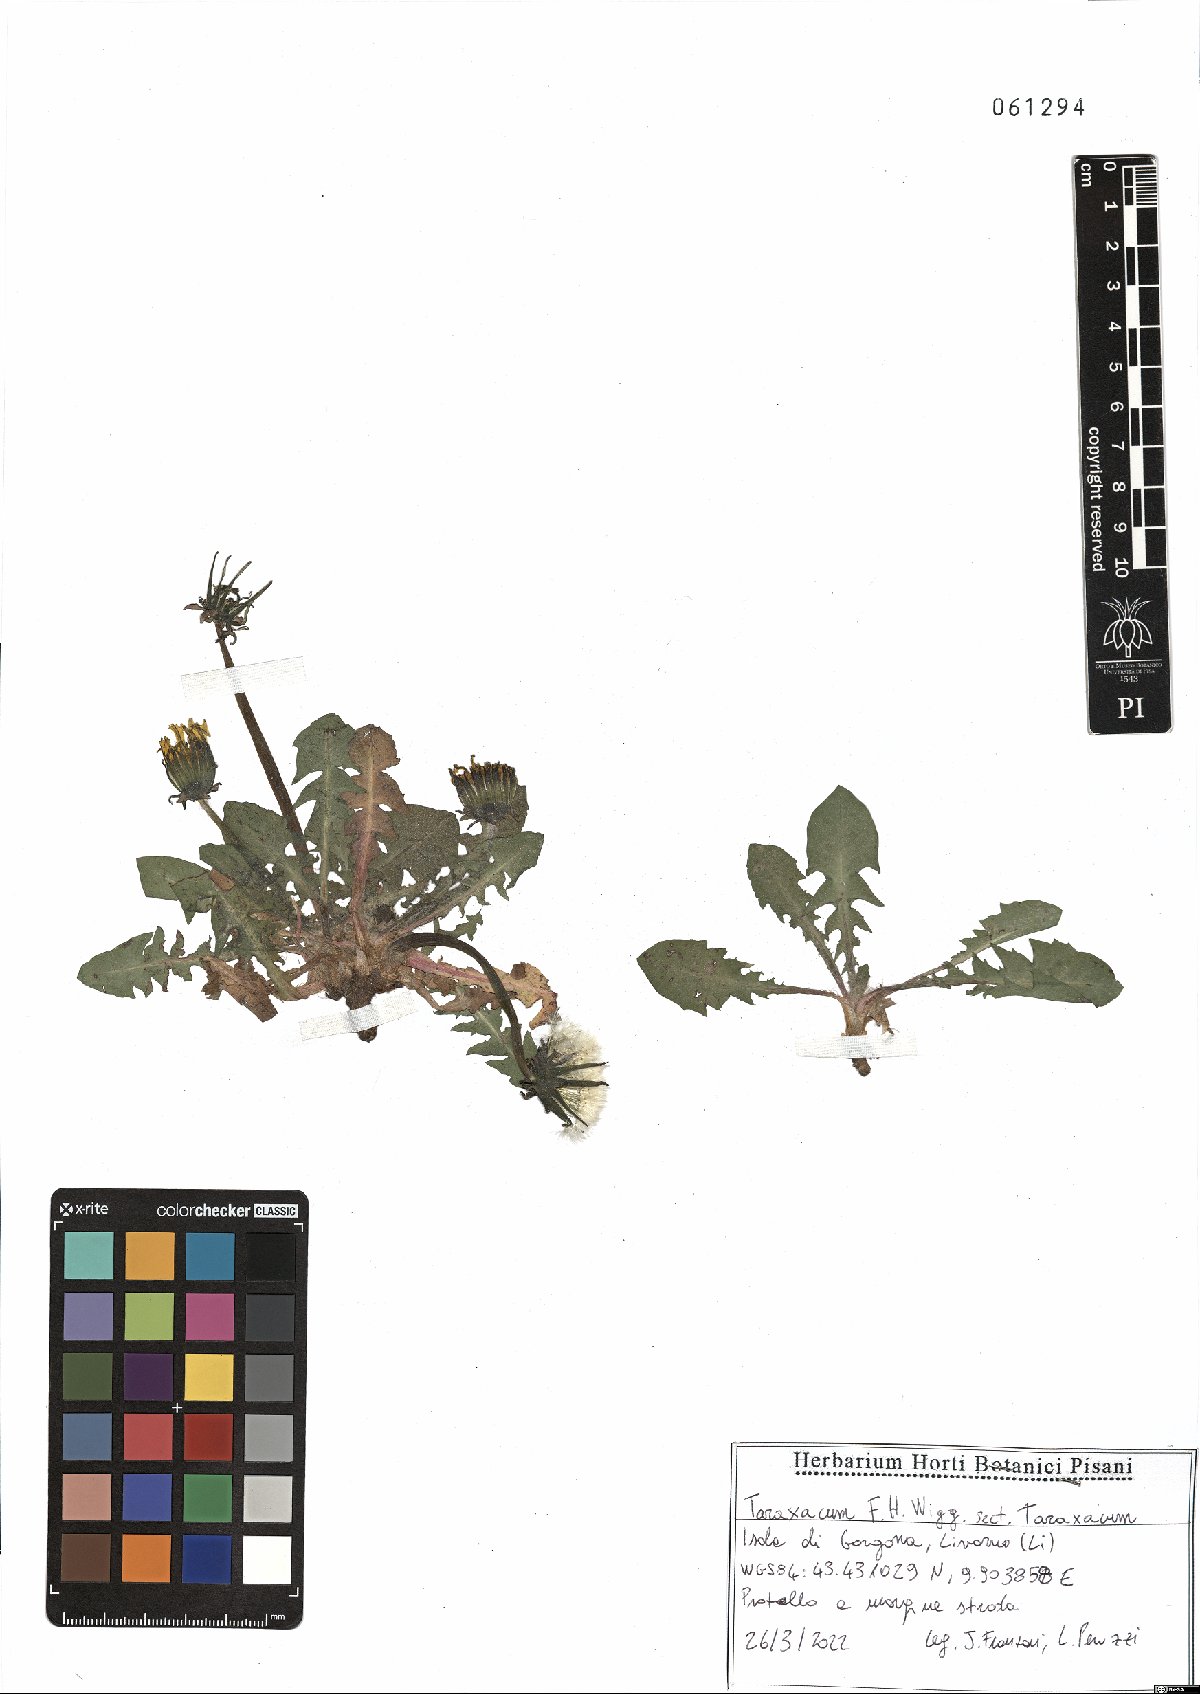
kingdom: Plantae
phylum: Tracheophyta
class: Magnoliopsida
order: Asterales
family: Asteraceae
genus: Taraxacum
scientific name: Taraxacum
